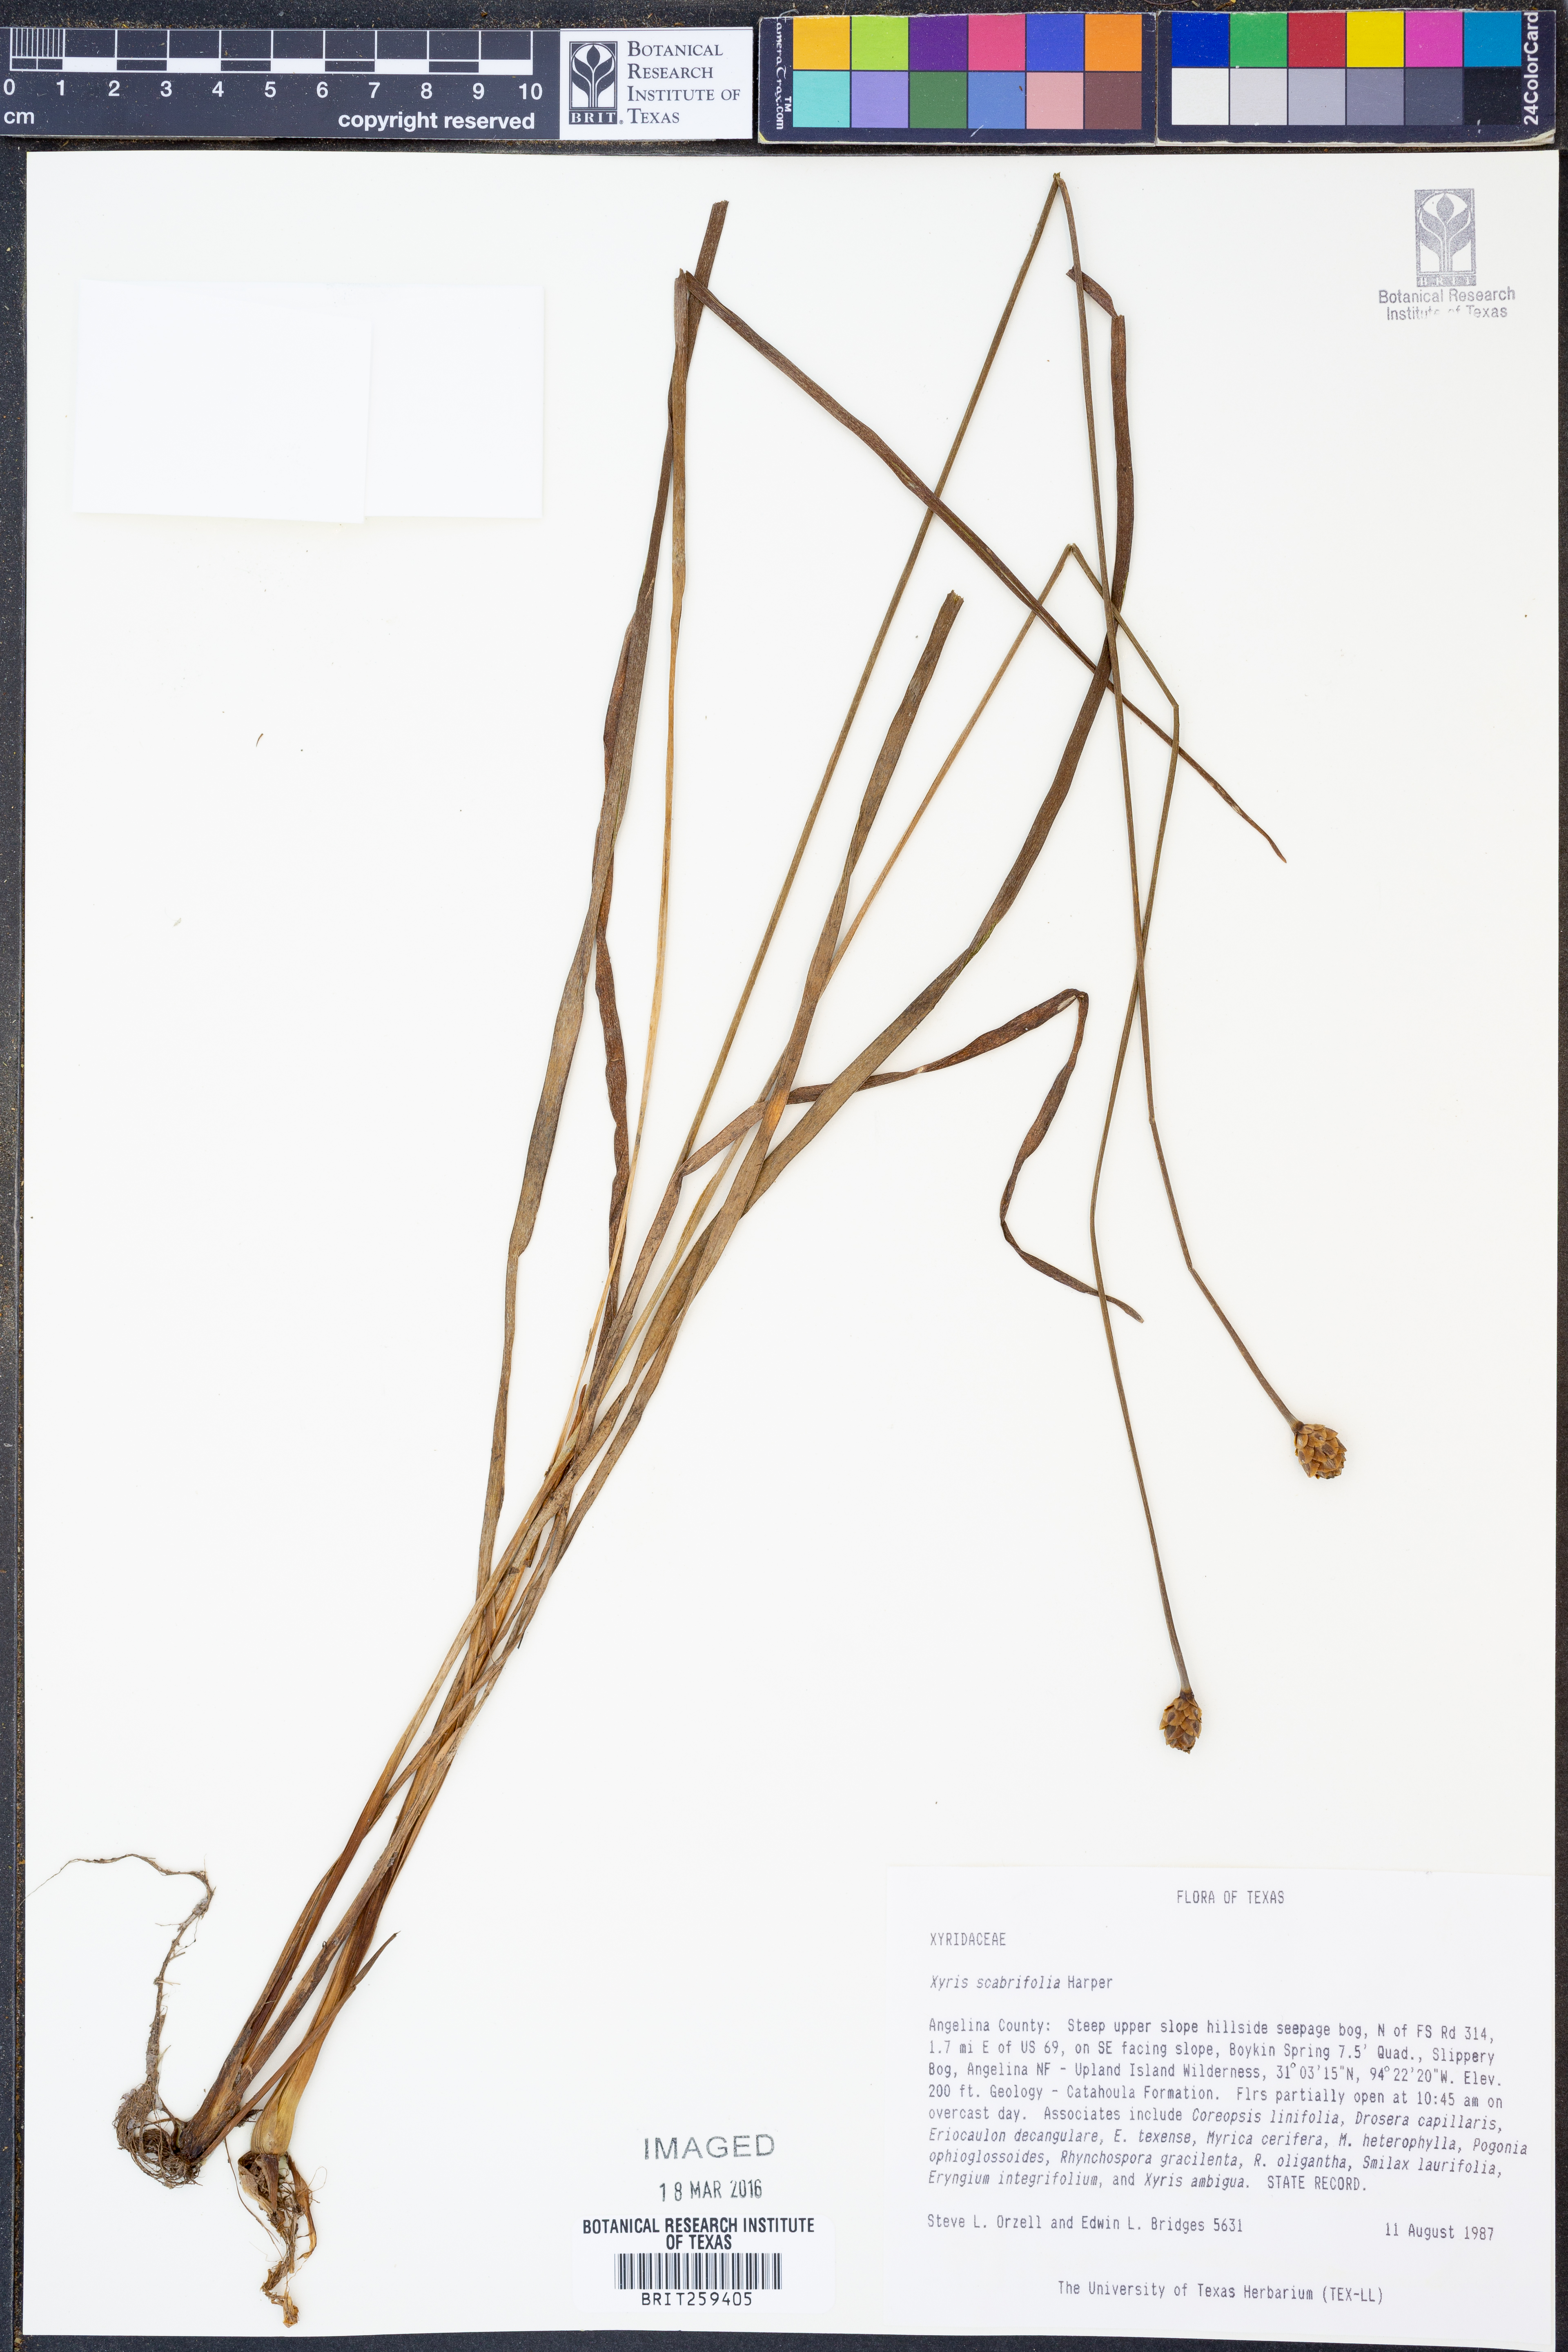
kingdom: Plantae
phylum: Tracheophyta
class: Liliopsida
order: Poales
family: Xyridaceae
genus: Xyris
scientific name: Xyris scabrifolia
